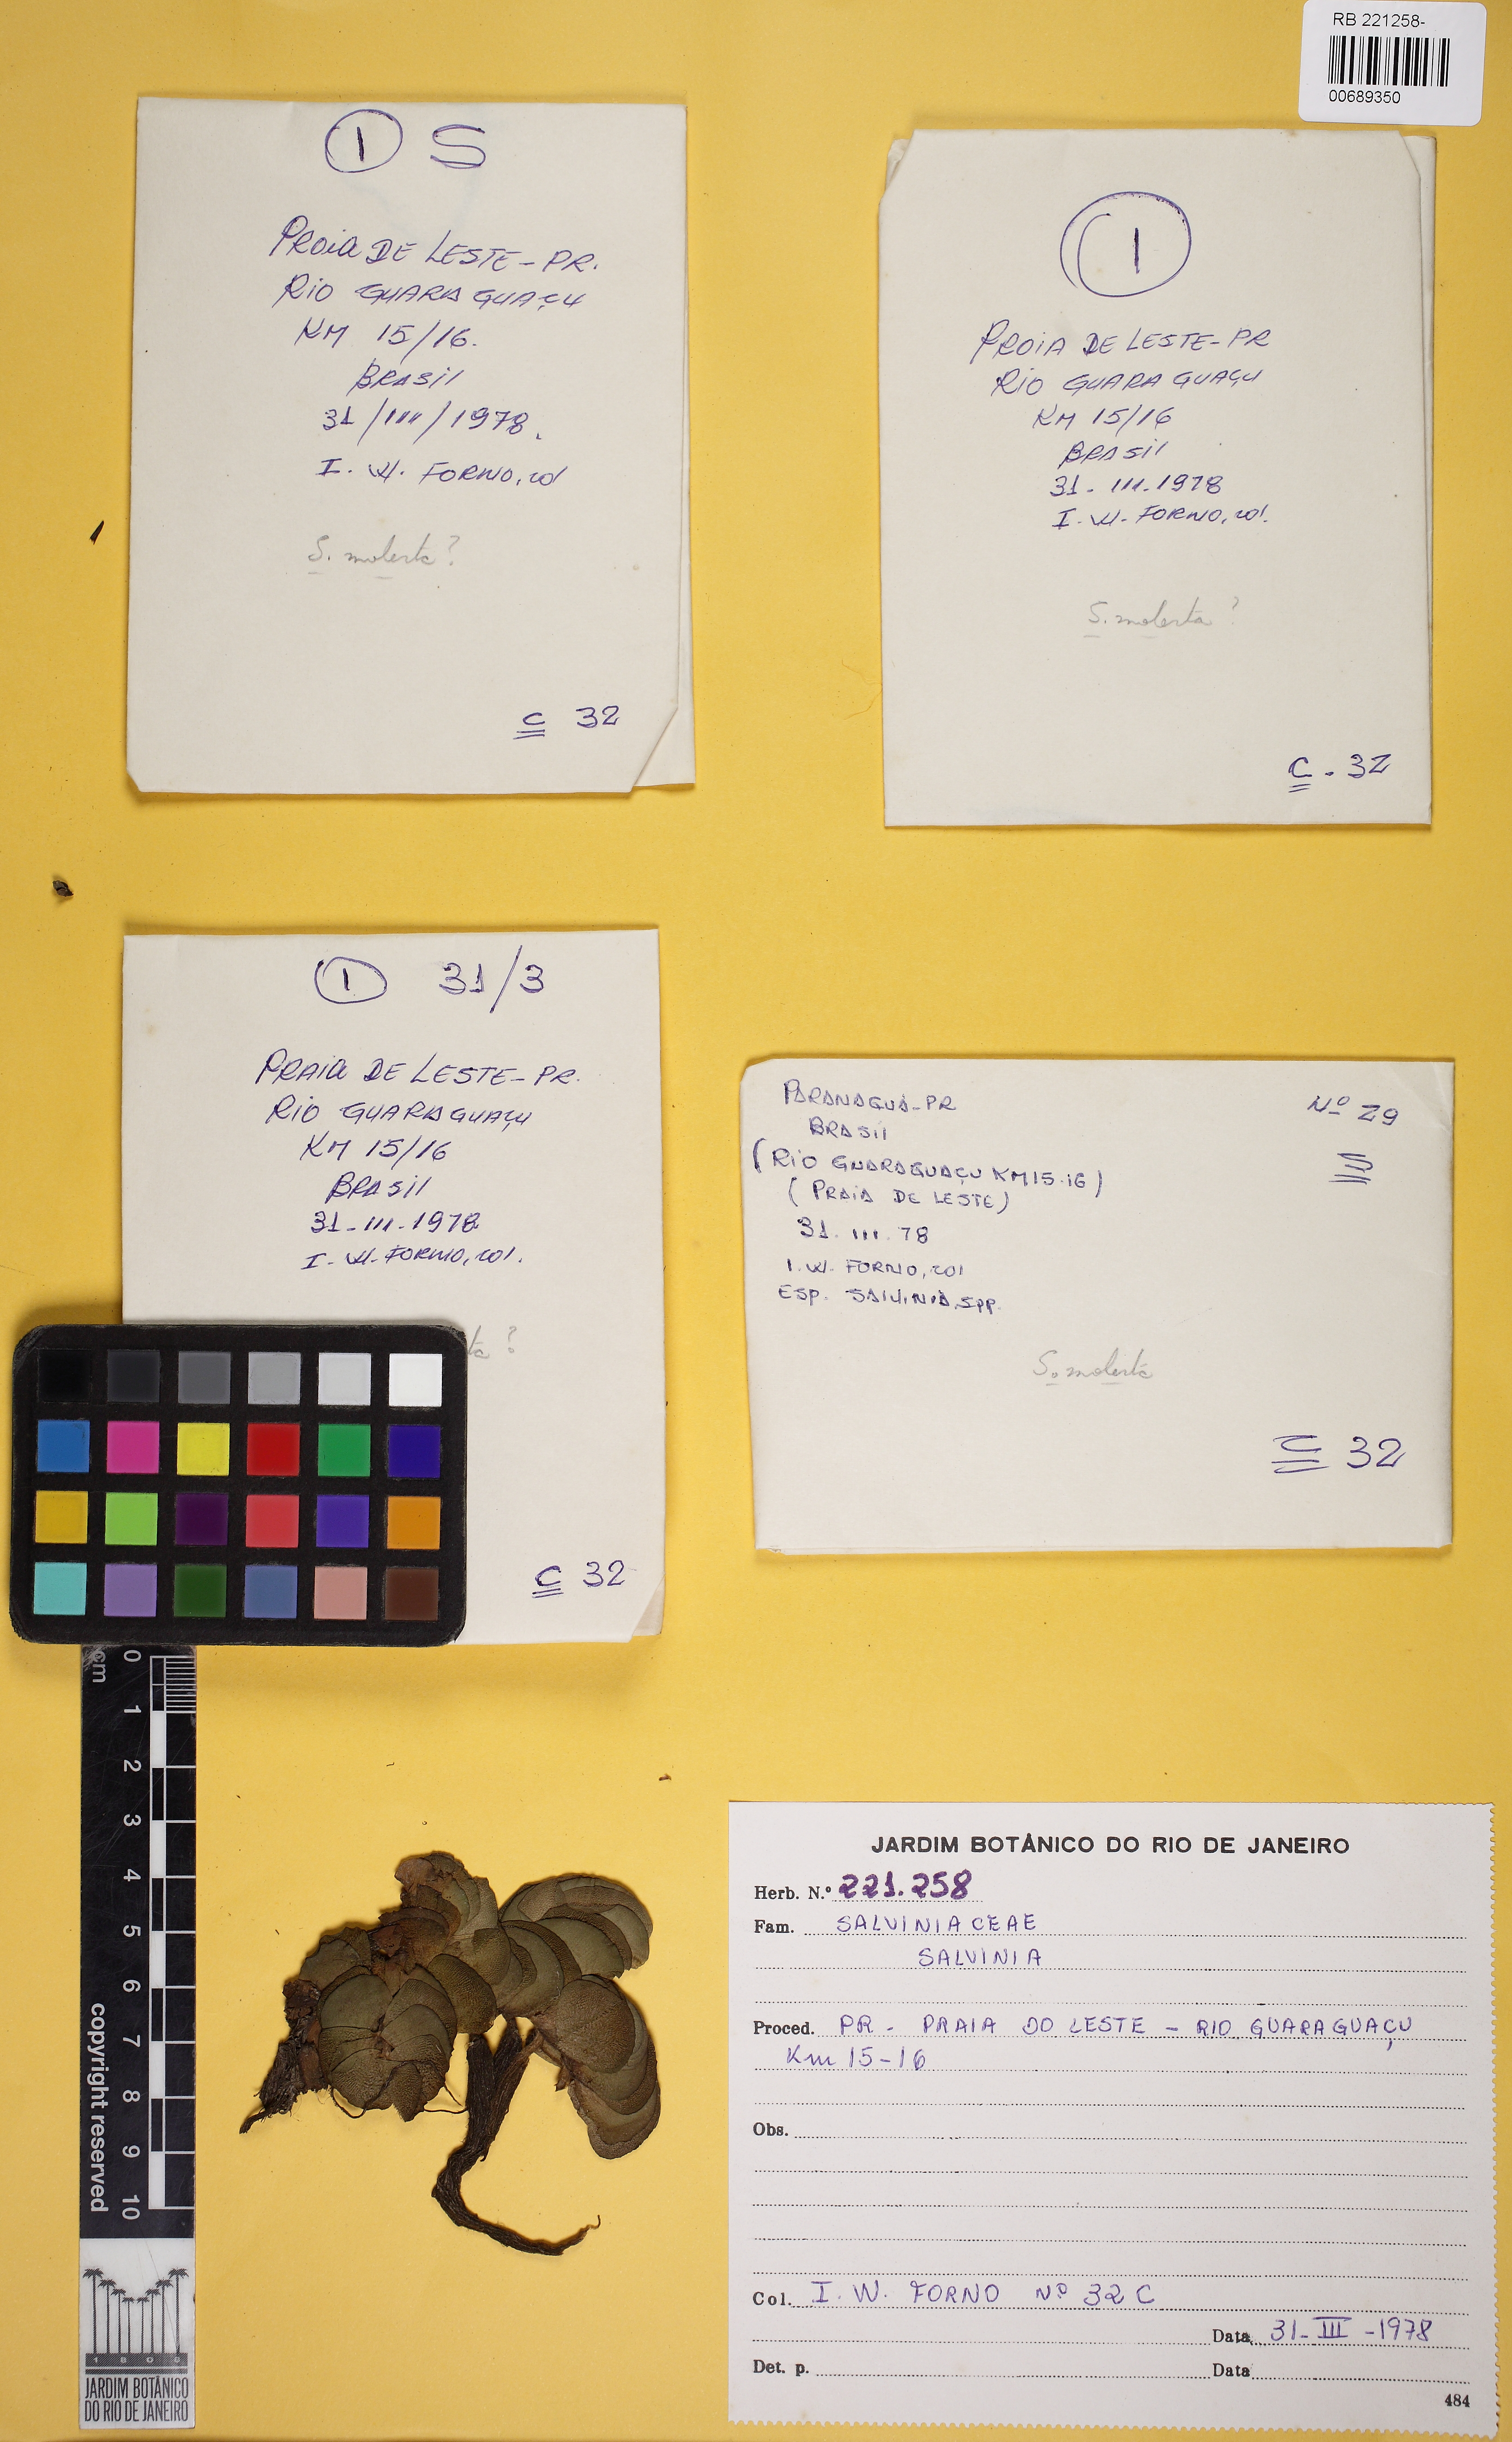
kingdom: Plantae
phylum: Tracheophyta
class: Polypodiopsida
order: Salviniales
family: Salviniaceae
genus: Salvinia
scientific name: Salvinia
